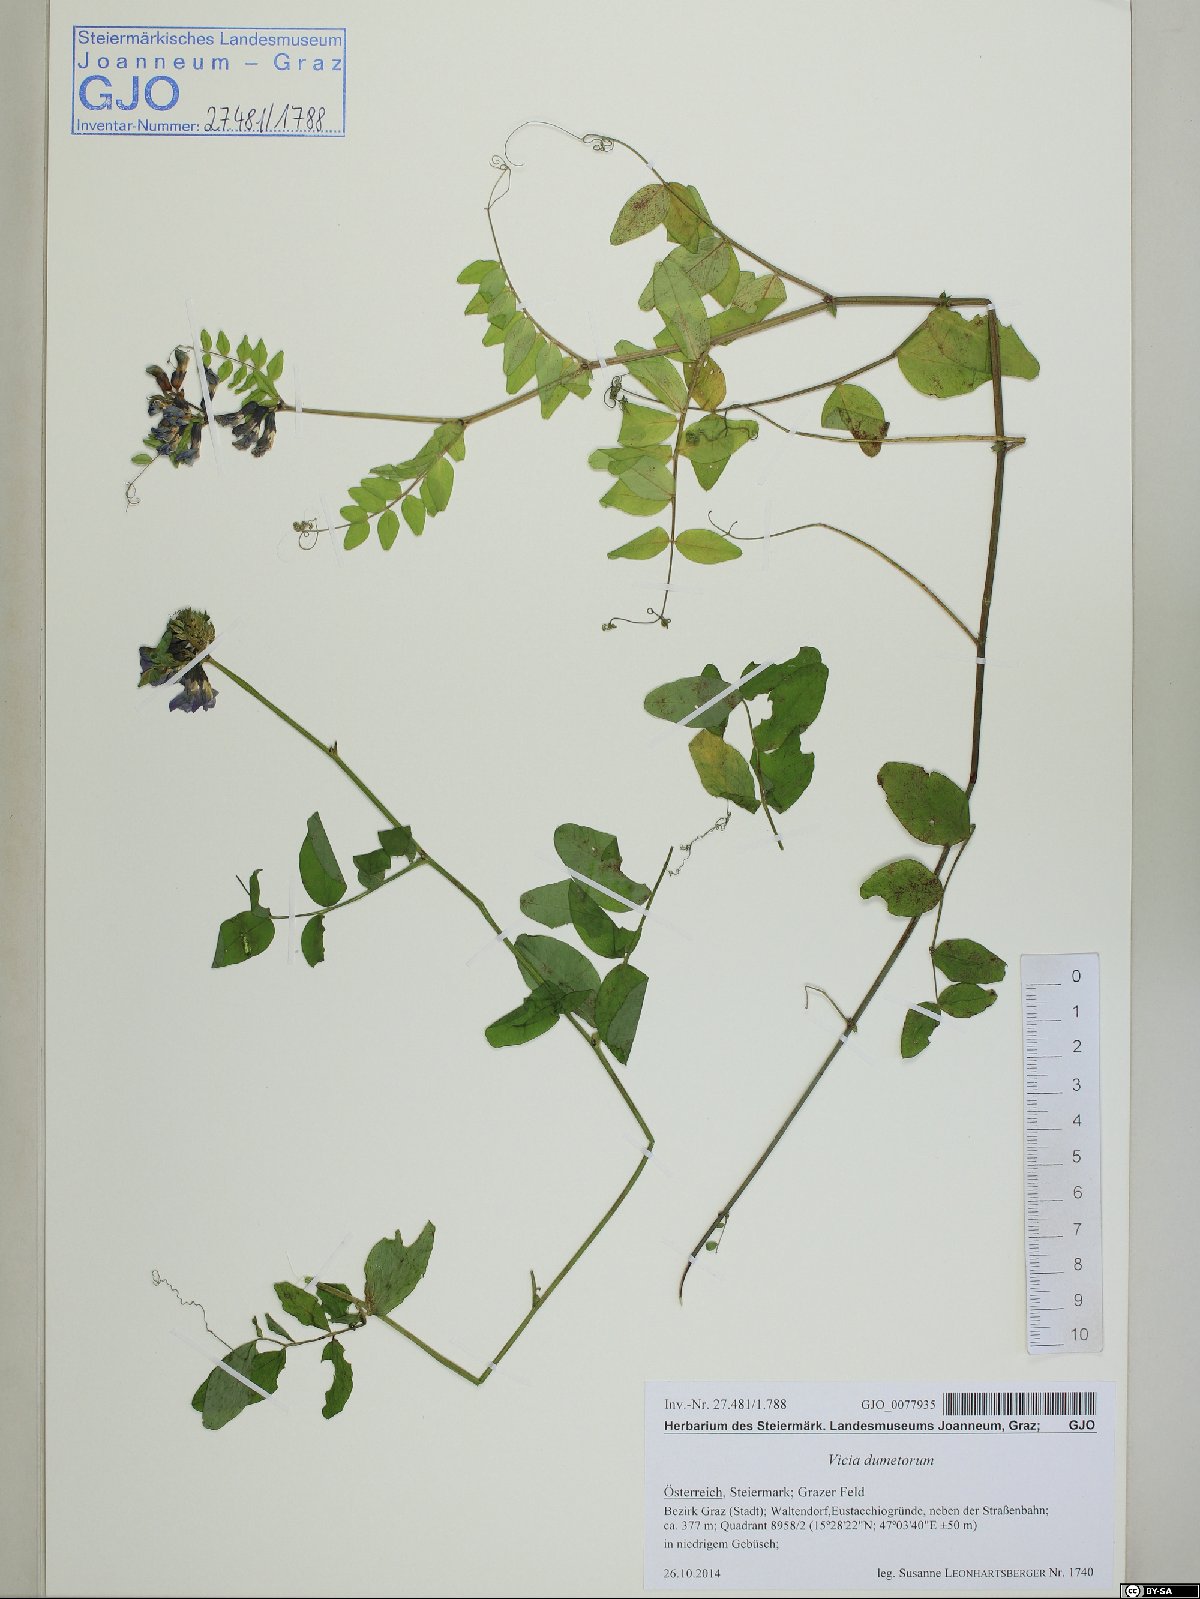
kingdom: Plantae
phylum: Tracheophyta
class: Magnoliopsida
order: Fabales
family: Fabaceae
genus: Vicia
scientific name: Vicia dumetorum
